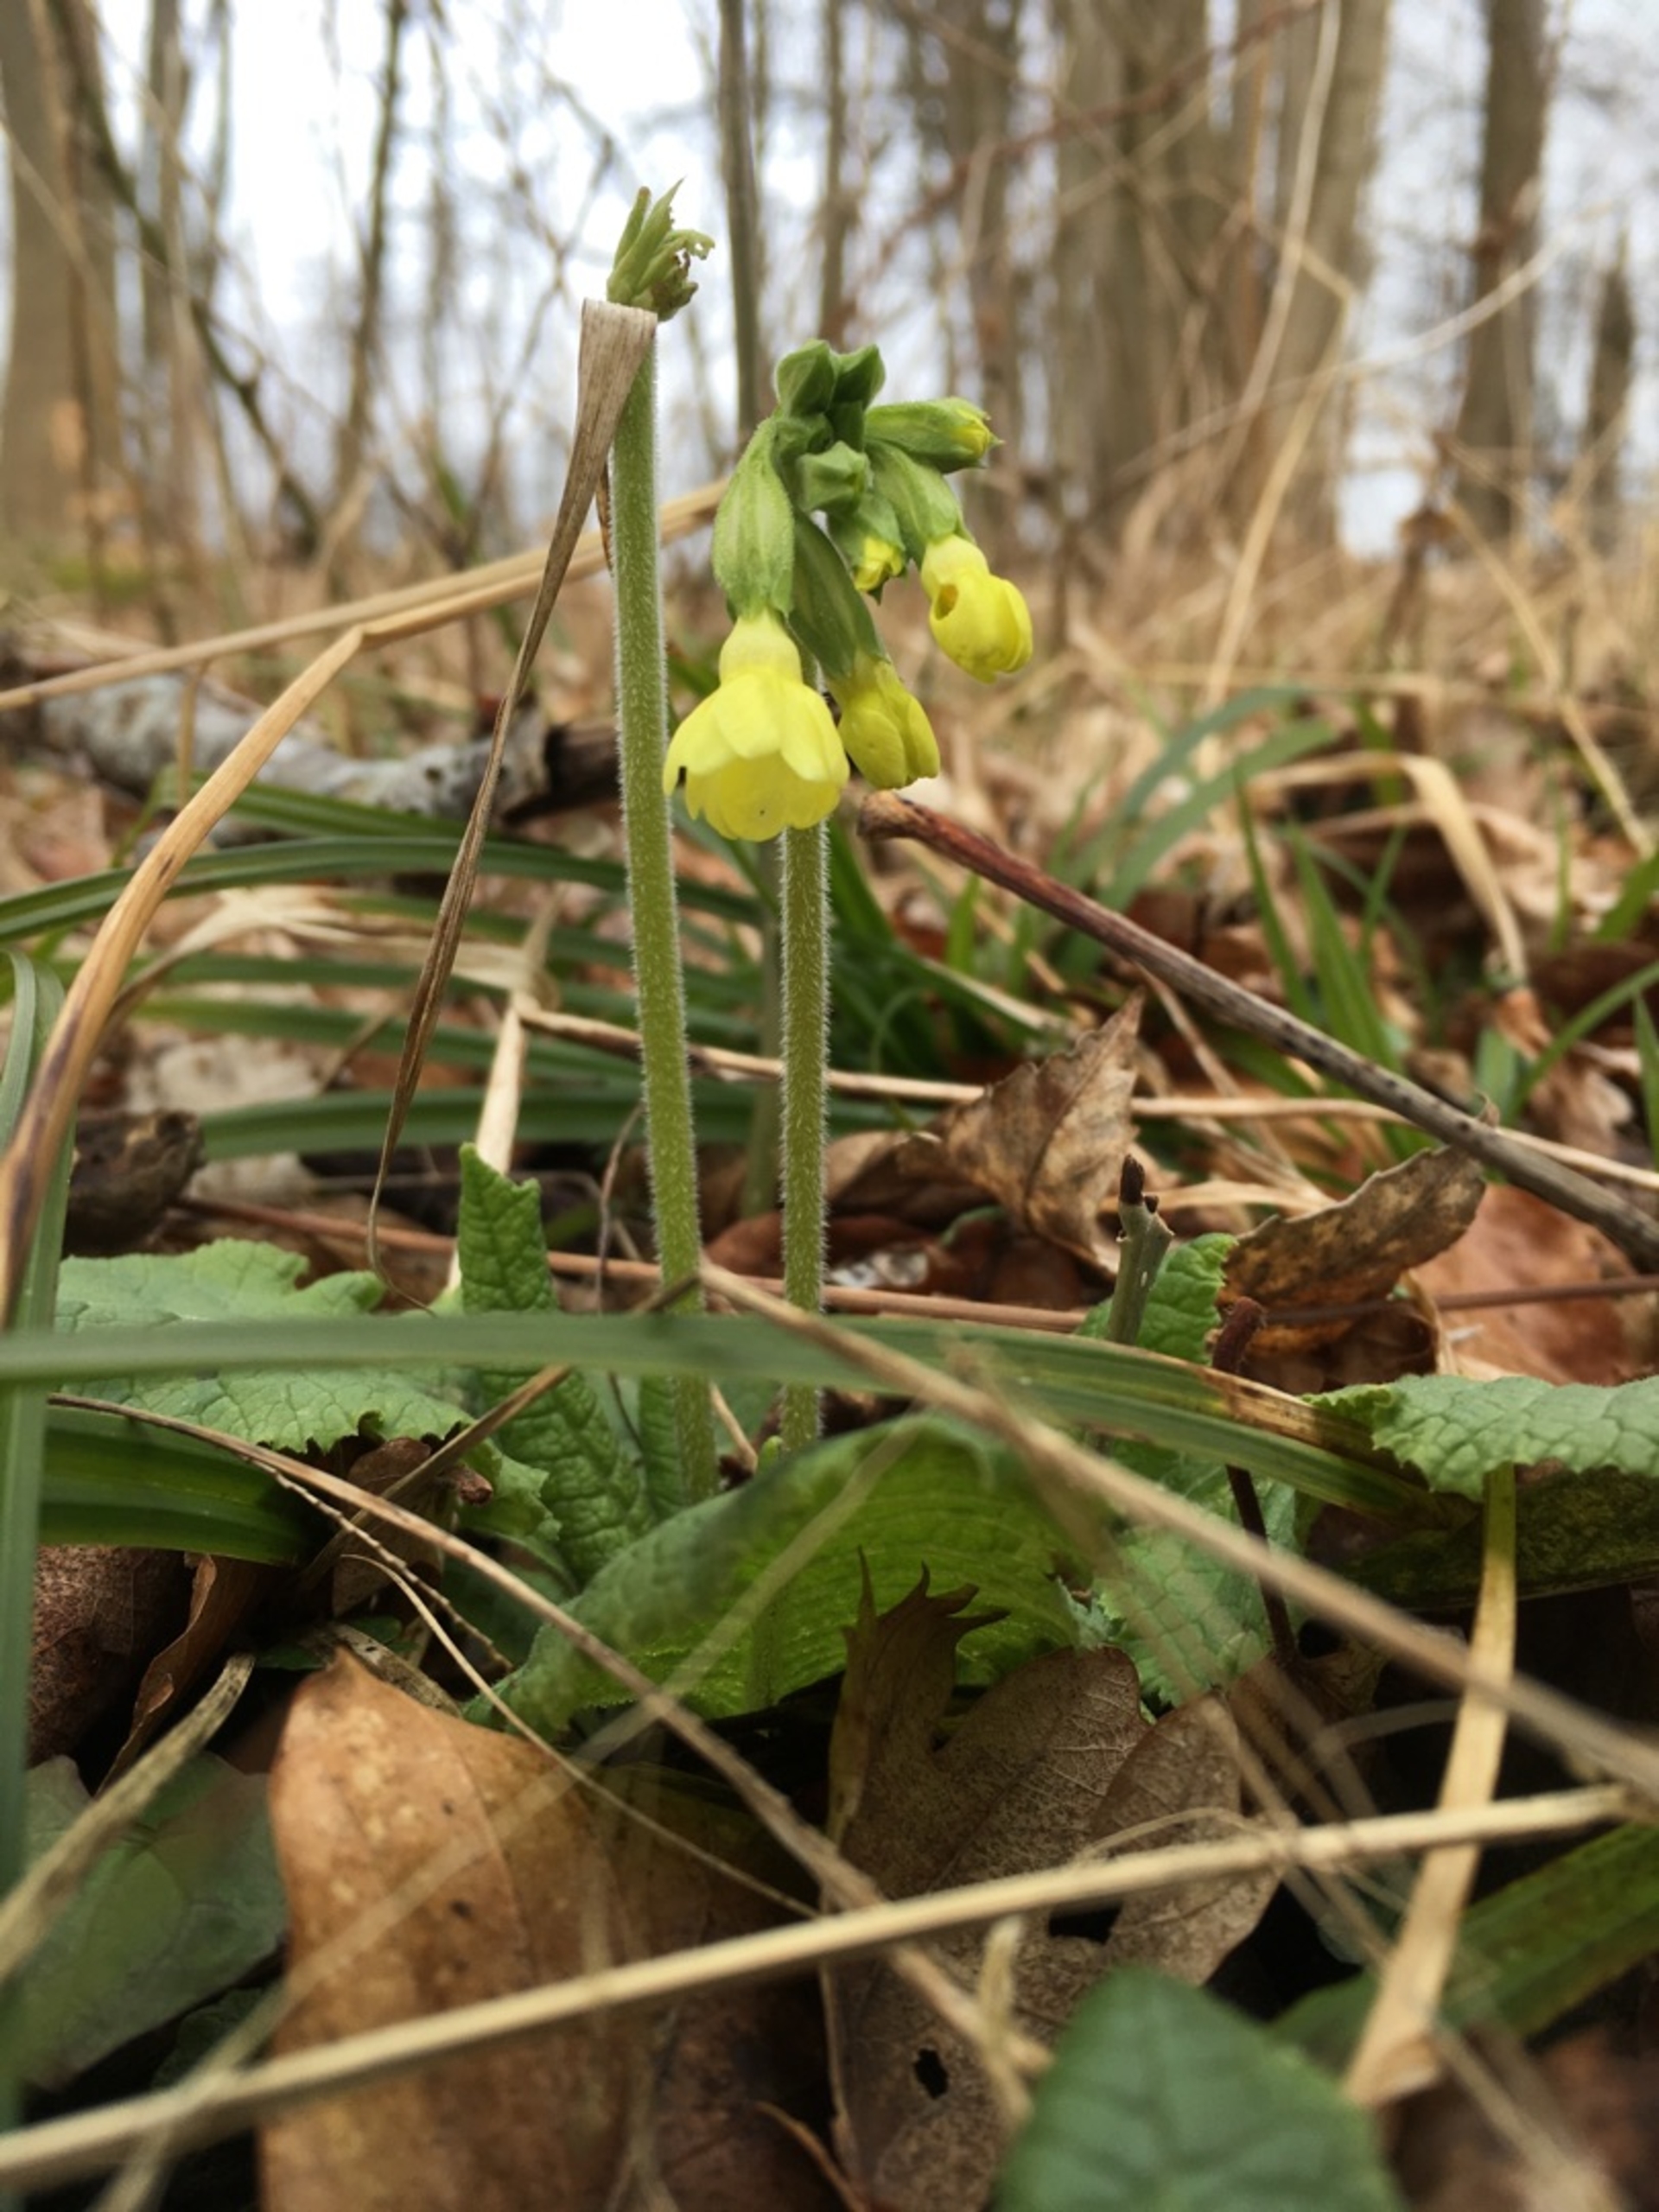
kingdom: Plantae
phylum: Tracheophyta
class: Magnoliopsida
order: Ericales
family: Primulaceae
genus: Primula
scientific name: Primula elatior
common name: Fladkravet kodriver
